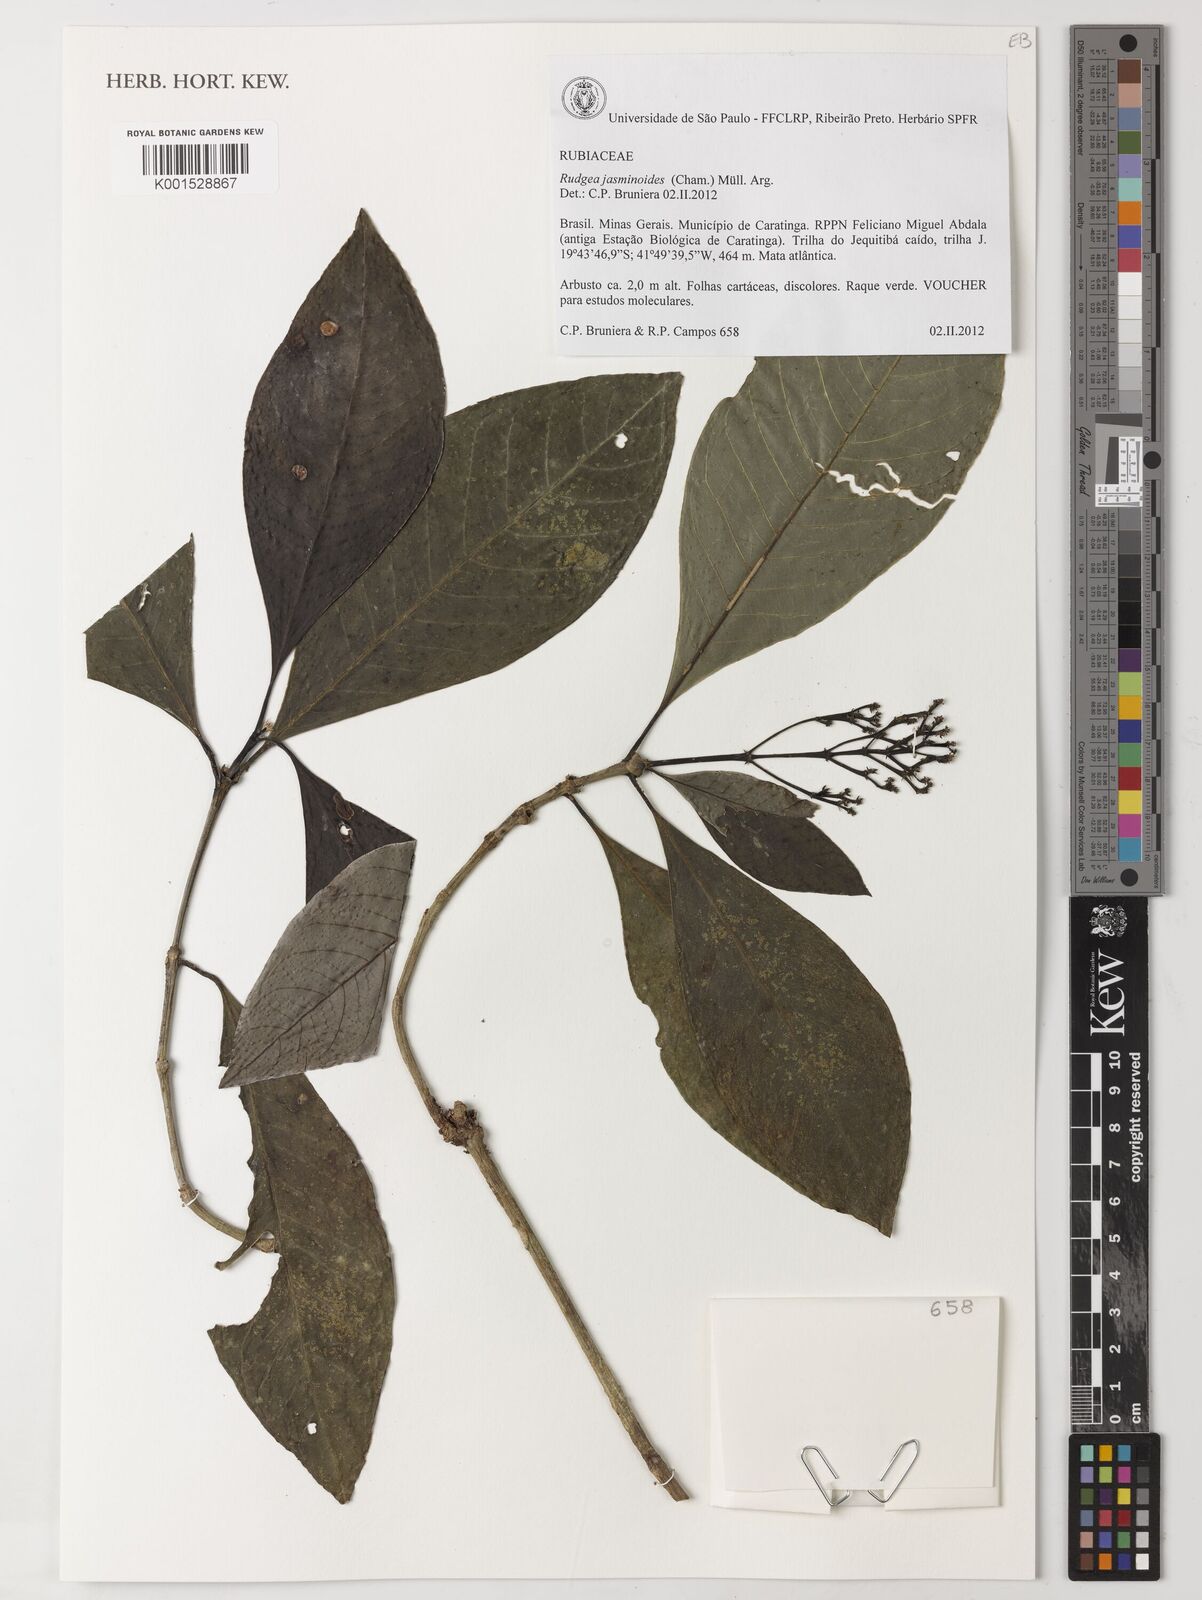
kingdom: Plantae
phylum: Tracheophyta
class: Magnoliopsida
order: Gentianales
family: Rubiaceae
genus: Rudgea
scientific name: Rudgea jasminoides
